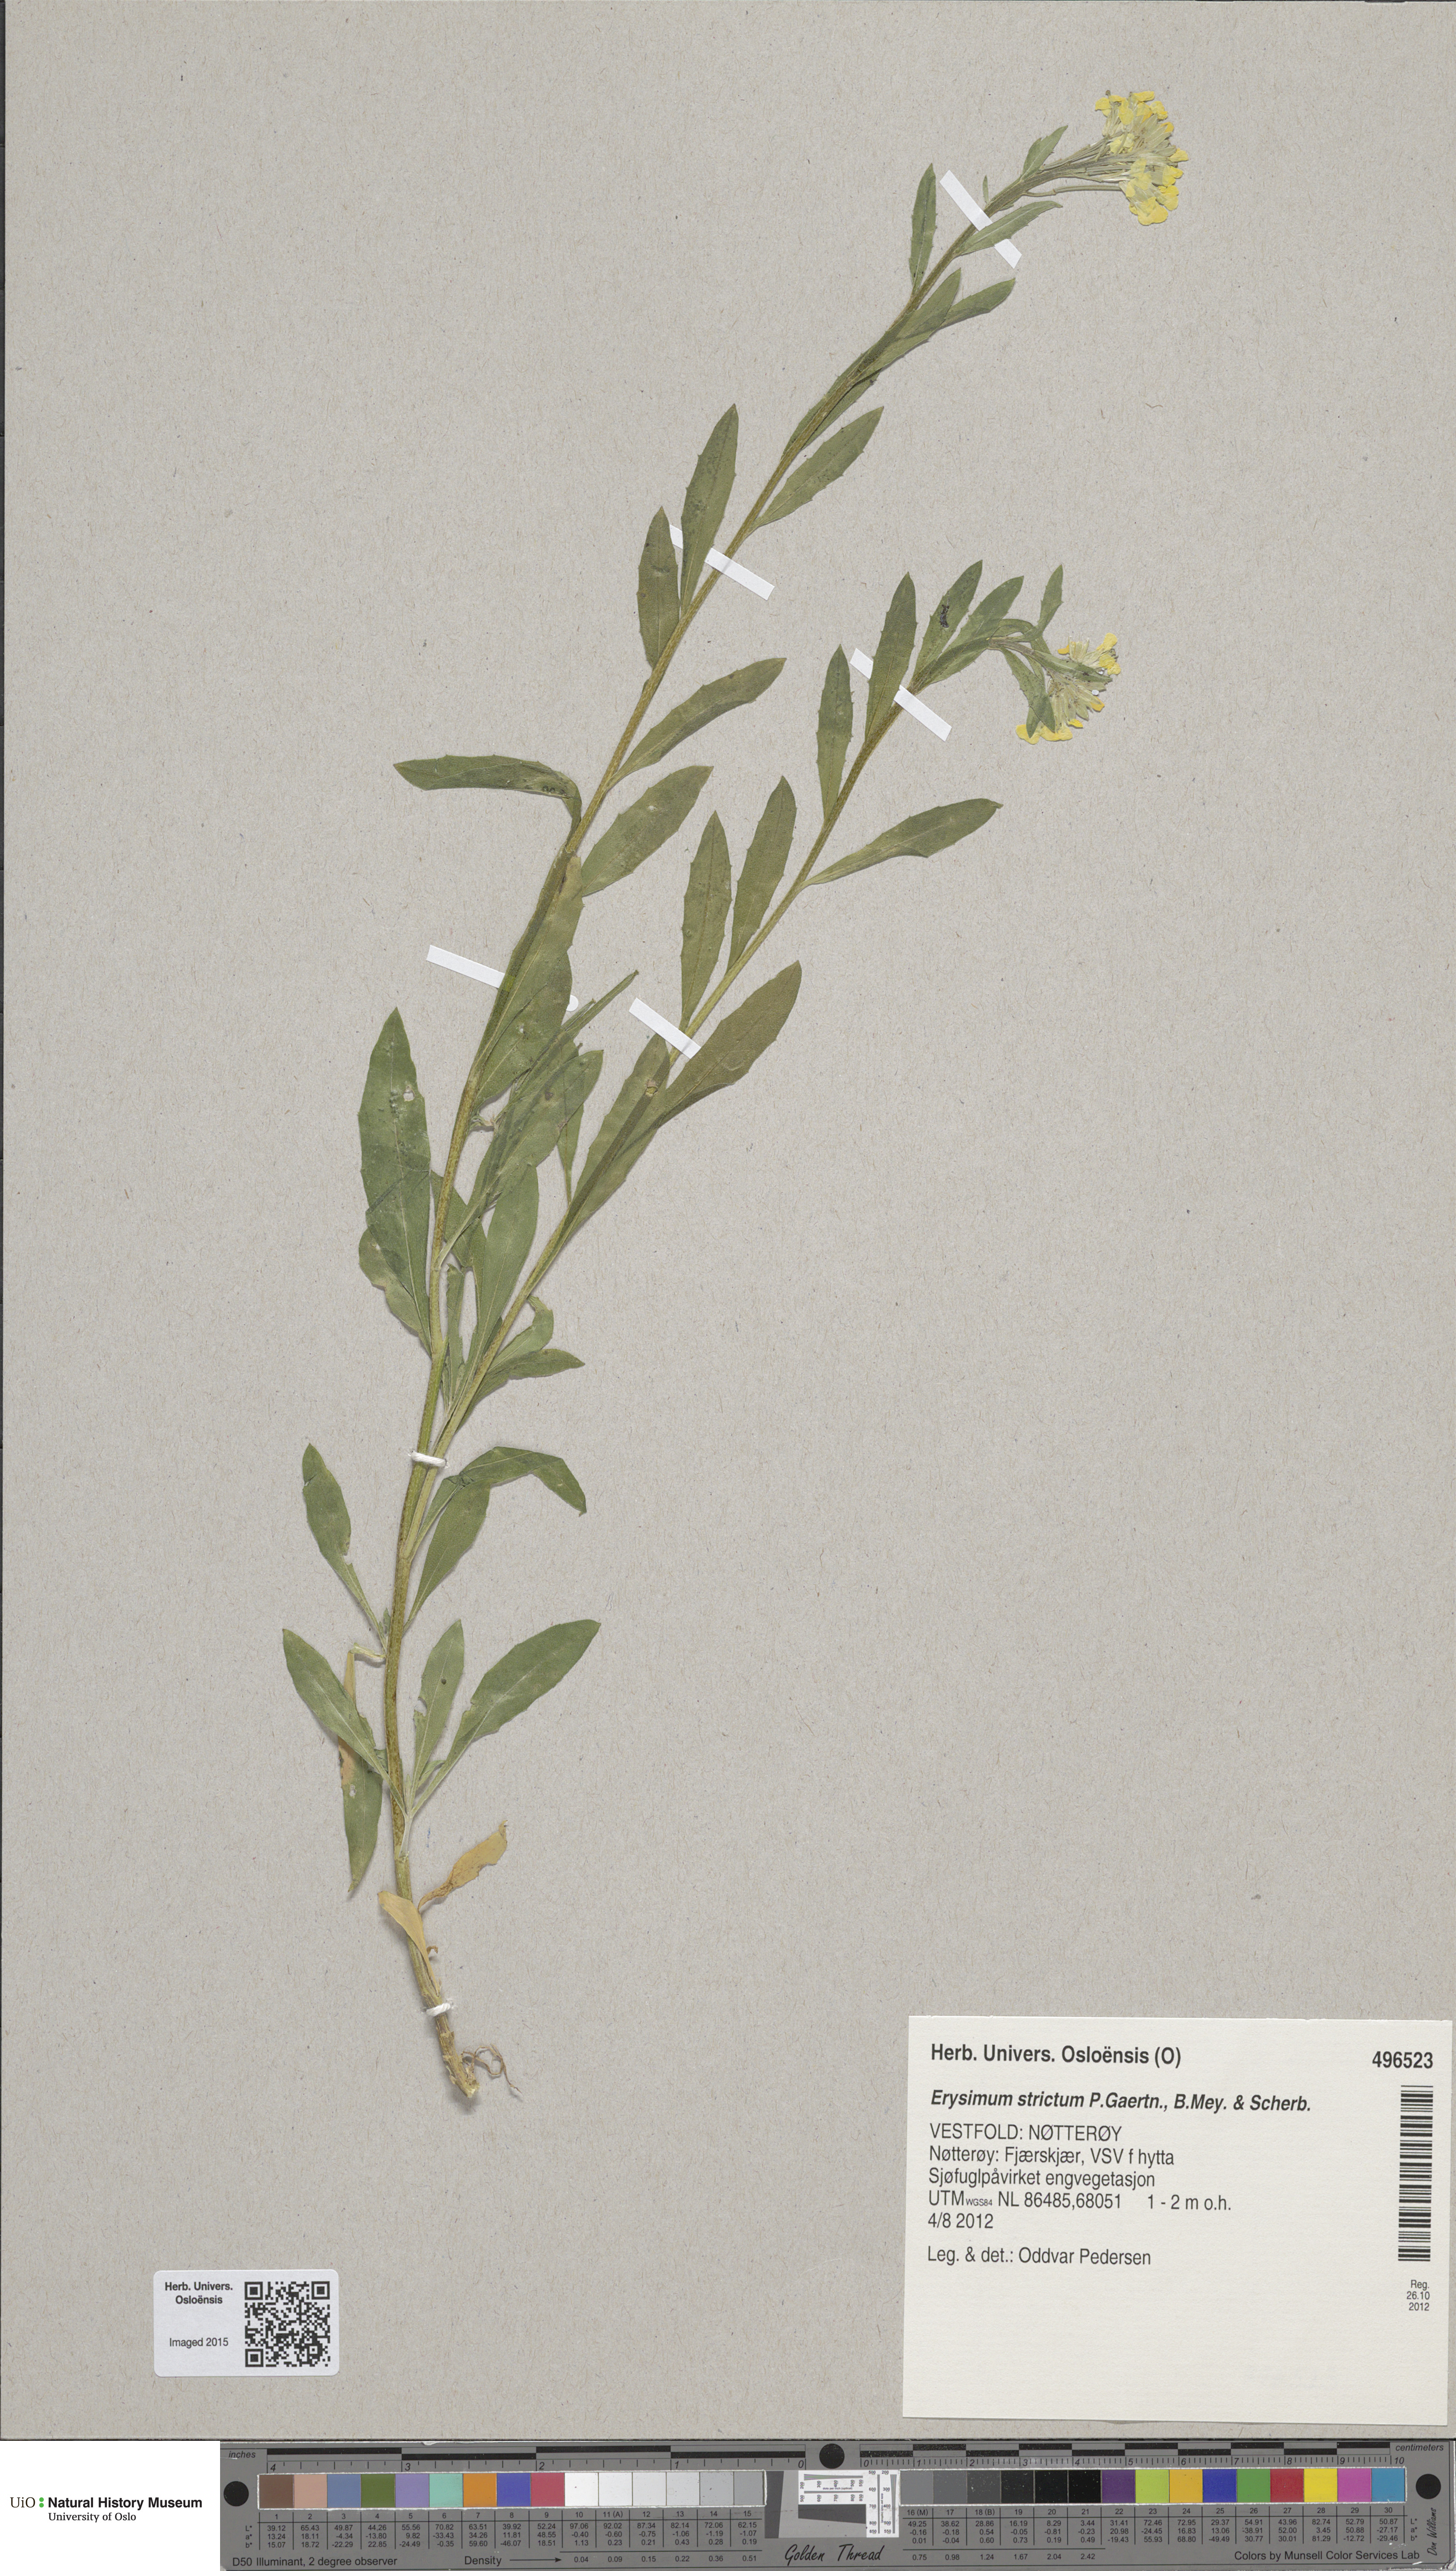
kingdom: Plantae
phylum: Tracheophyta
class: Magnoliopsida
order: Brassicales
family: Brassicaceae
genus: Erysimum
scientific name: Erysimum virgatum
